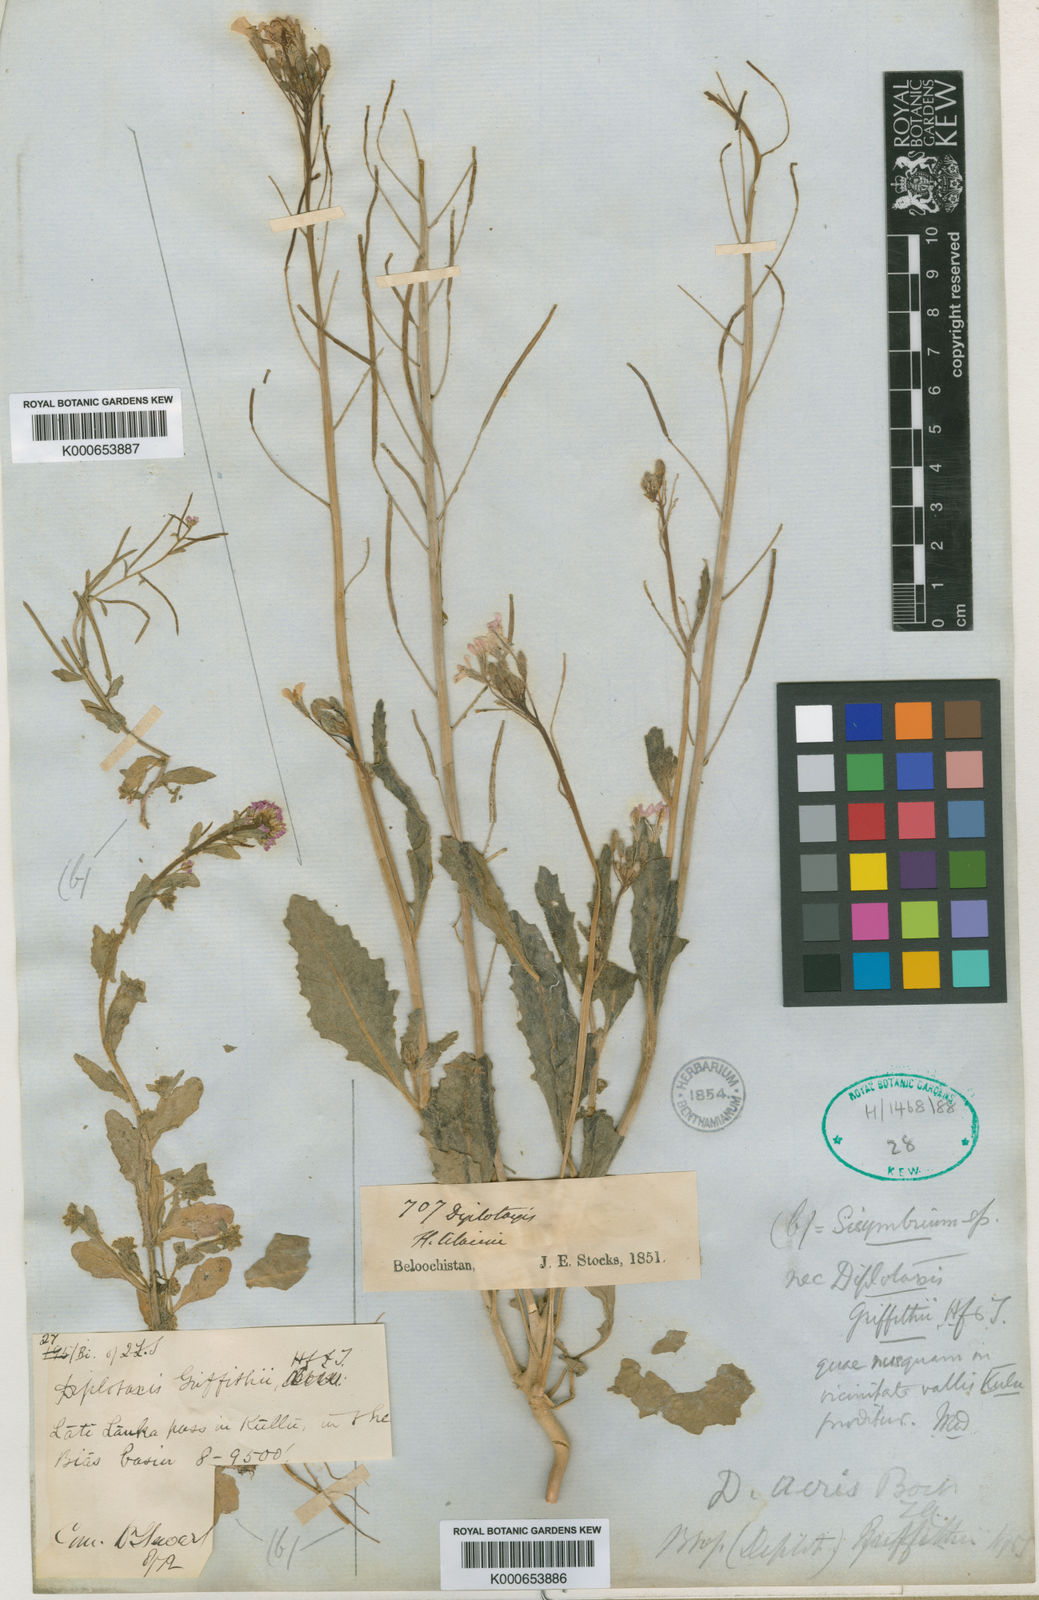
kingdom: Plantae
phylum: Tracheophyta
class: Magnoliopsida
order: Brassicales
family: Brassicaceae
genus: Diplotaxis
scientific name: Diplotaxis griffithii
